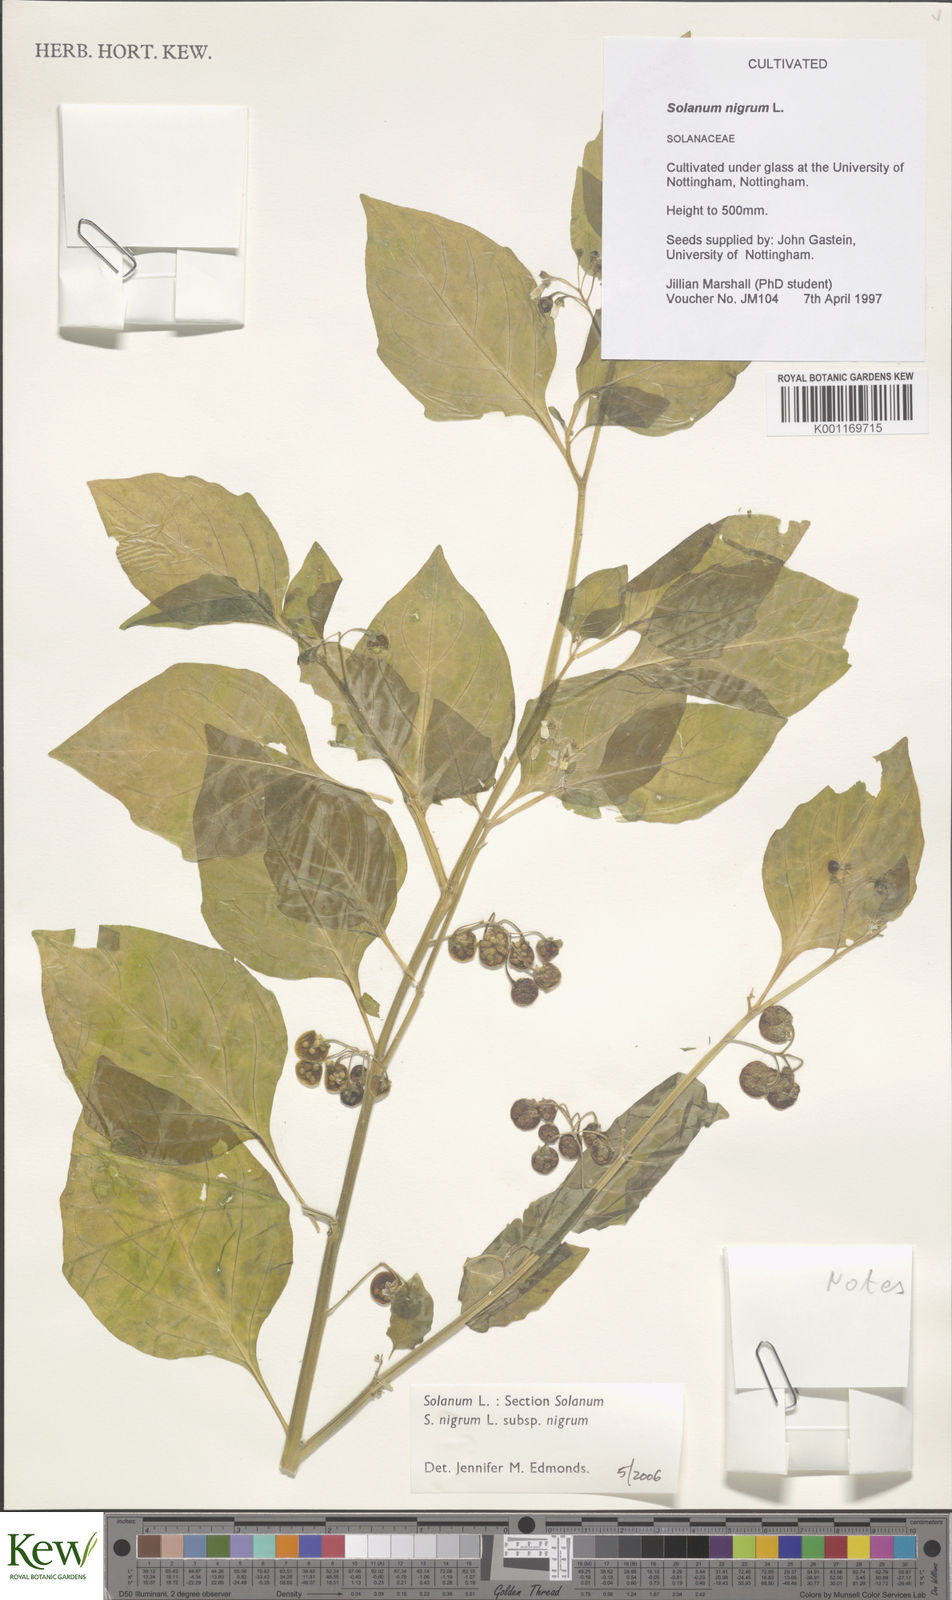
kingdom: Plantae
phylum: Tracheophyta
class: Magnoliopsida
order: Solanales
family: Solanaceae
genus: Solanum
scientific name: Solanum nigrum
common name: Black nightshade
